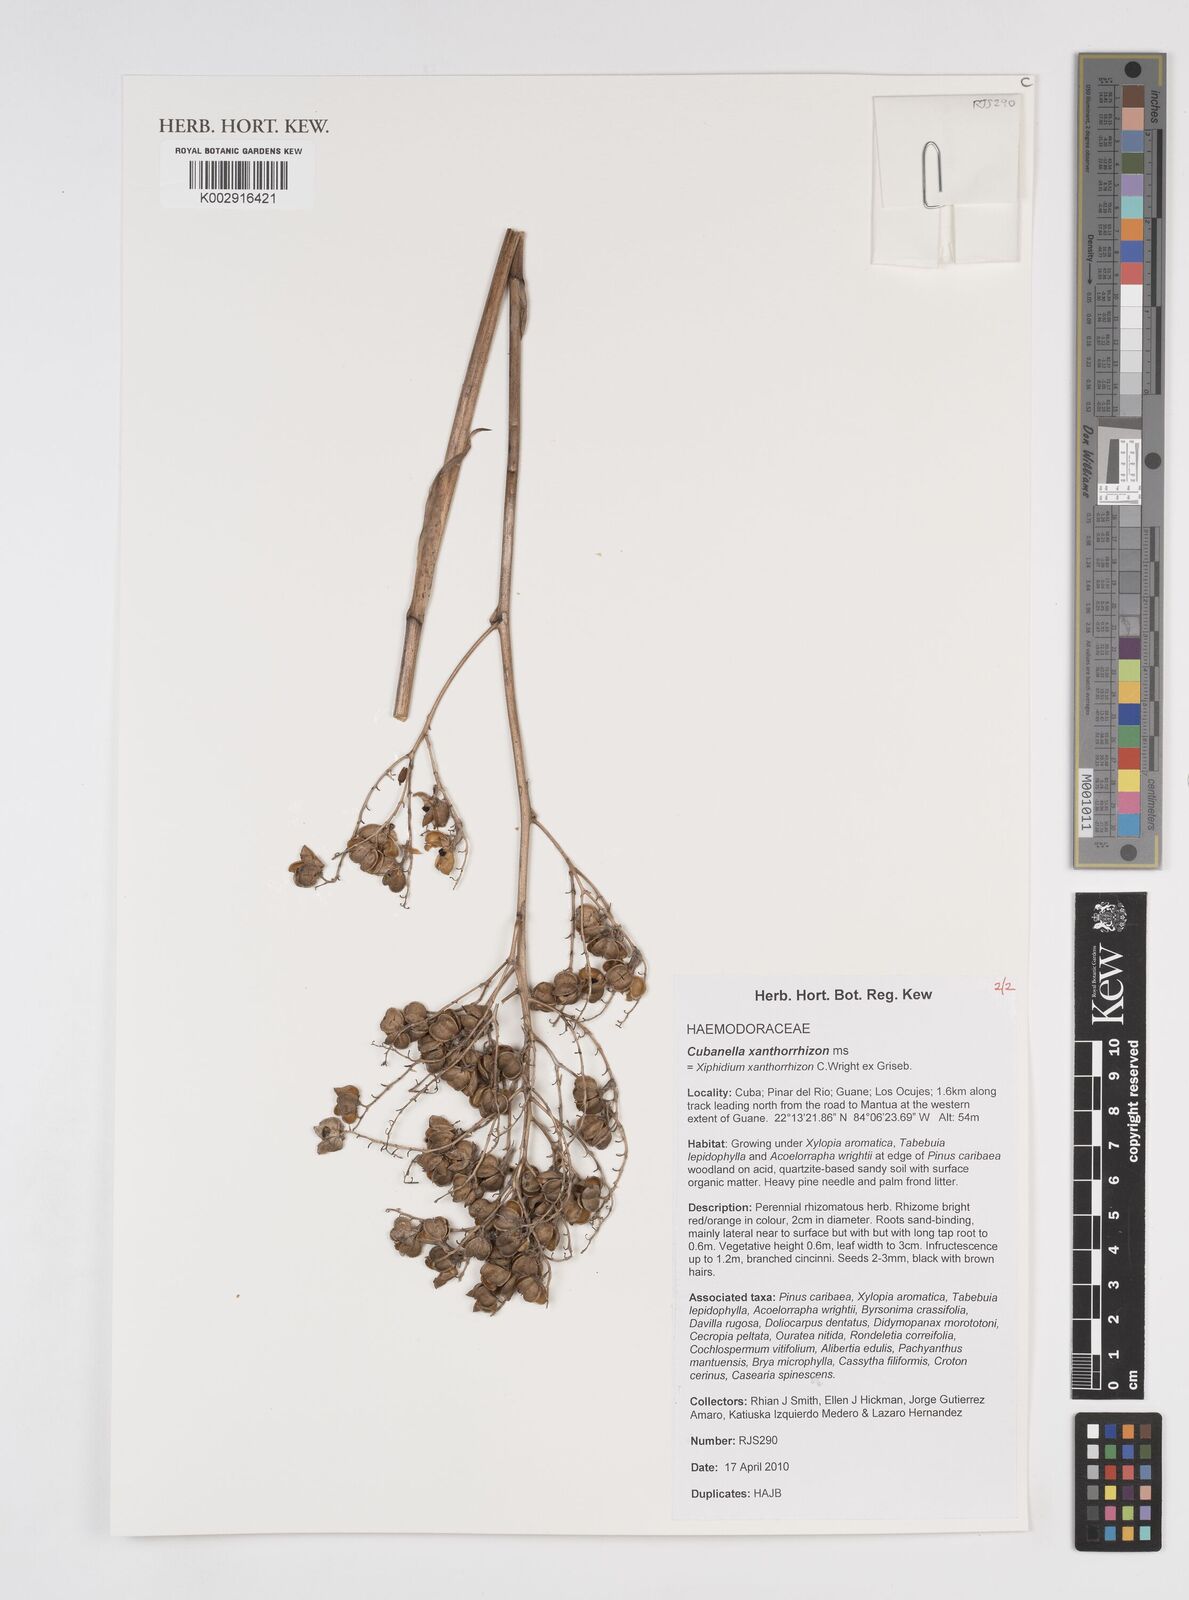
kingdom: Plantae
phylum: Tracheophyta
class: Liliopsida
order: Commelinales
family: Haemodoraceae
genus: Cubanicula
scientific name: Cubanicula xanthorrhizos
